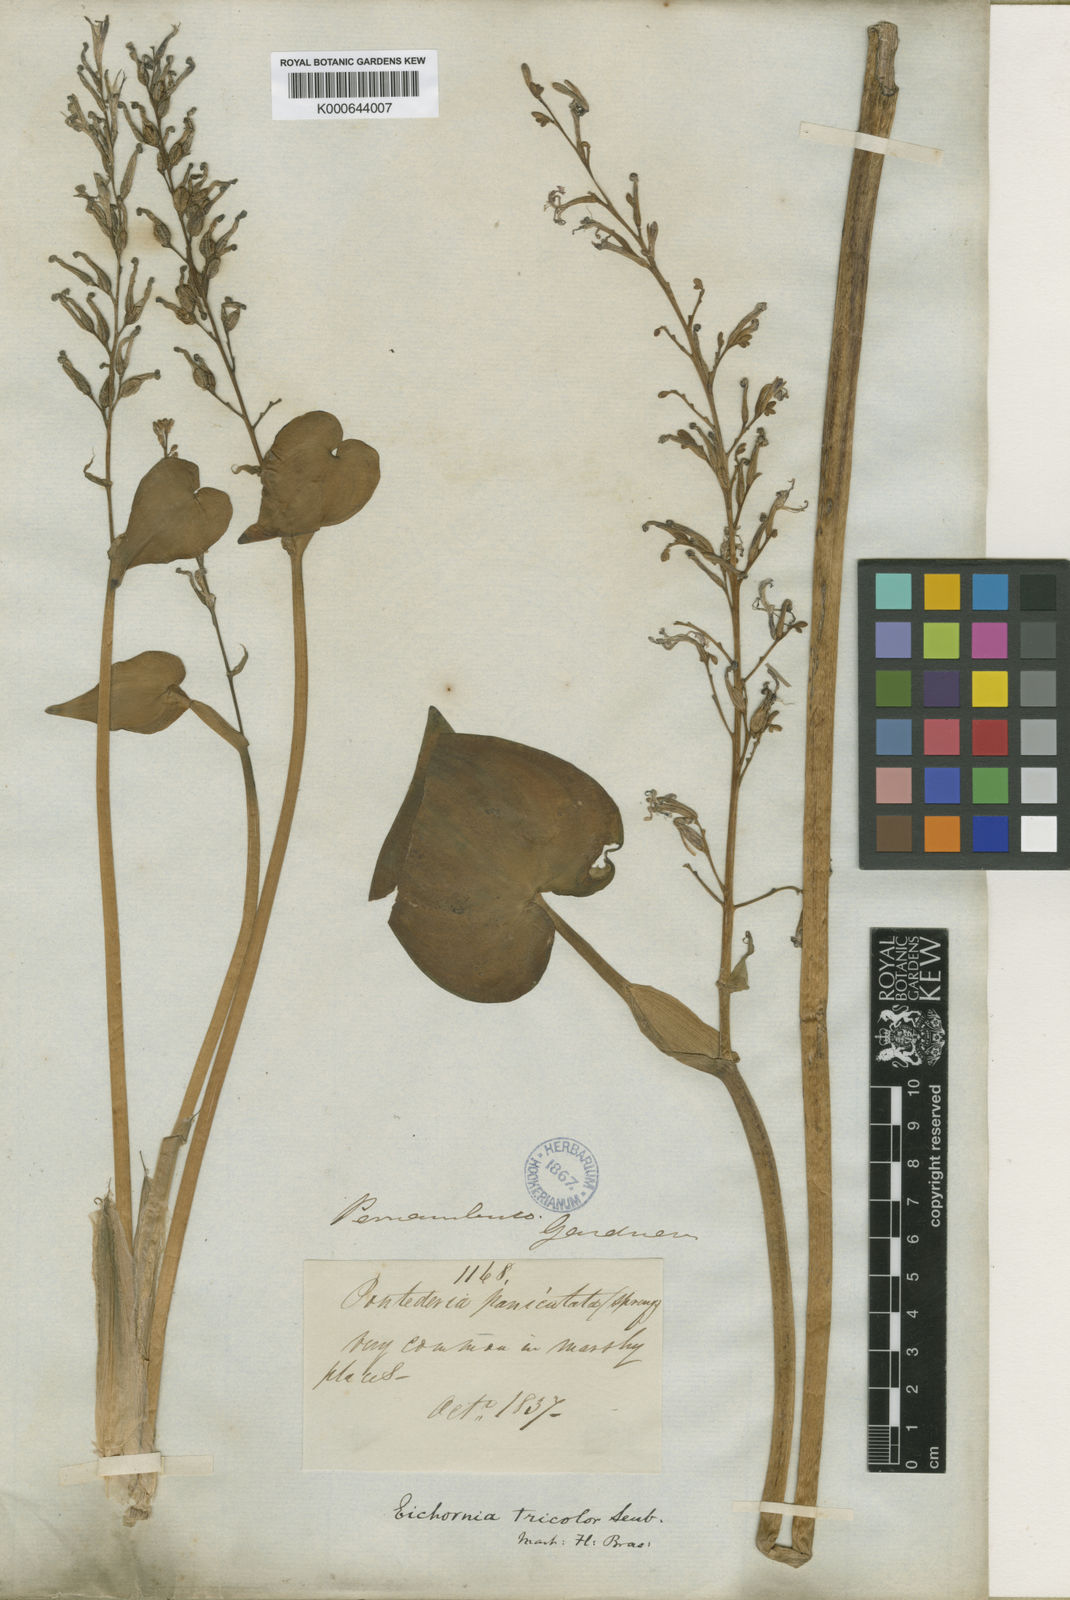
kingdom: Plantae
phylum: Tracheophyta
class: Liliopsida
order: Commelinales
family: Pontederiaceae
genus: Pontederia
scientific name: Pontederia paniculata
